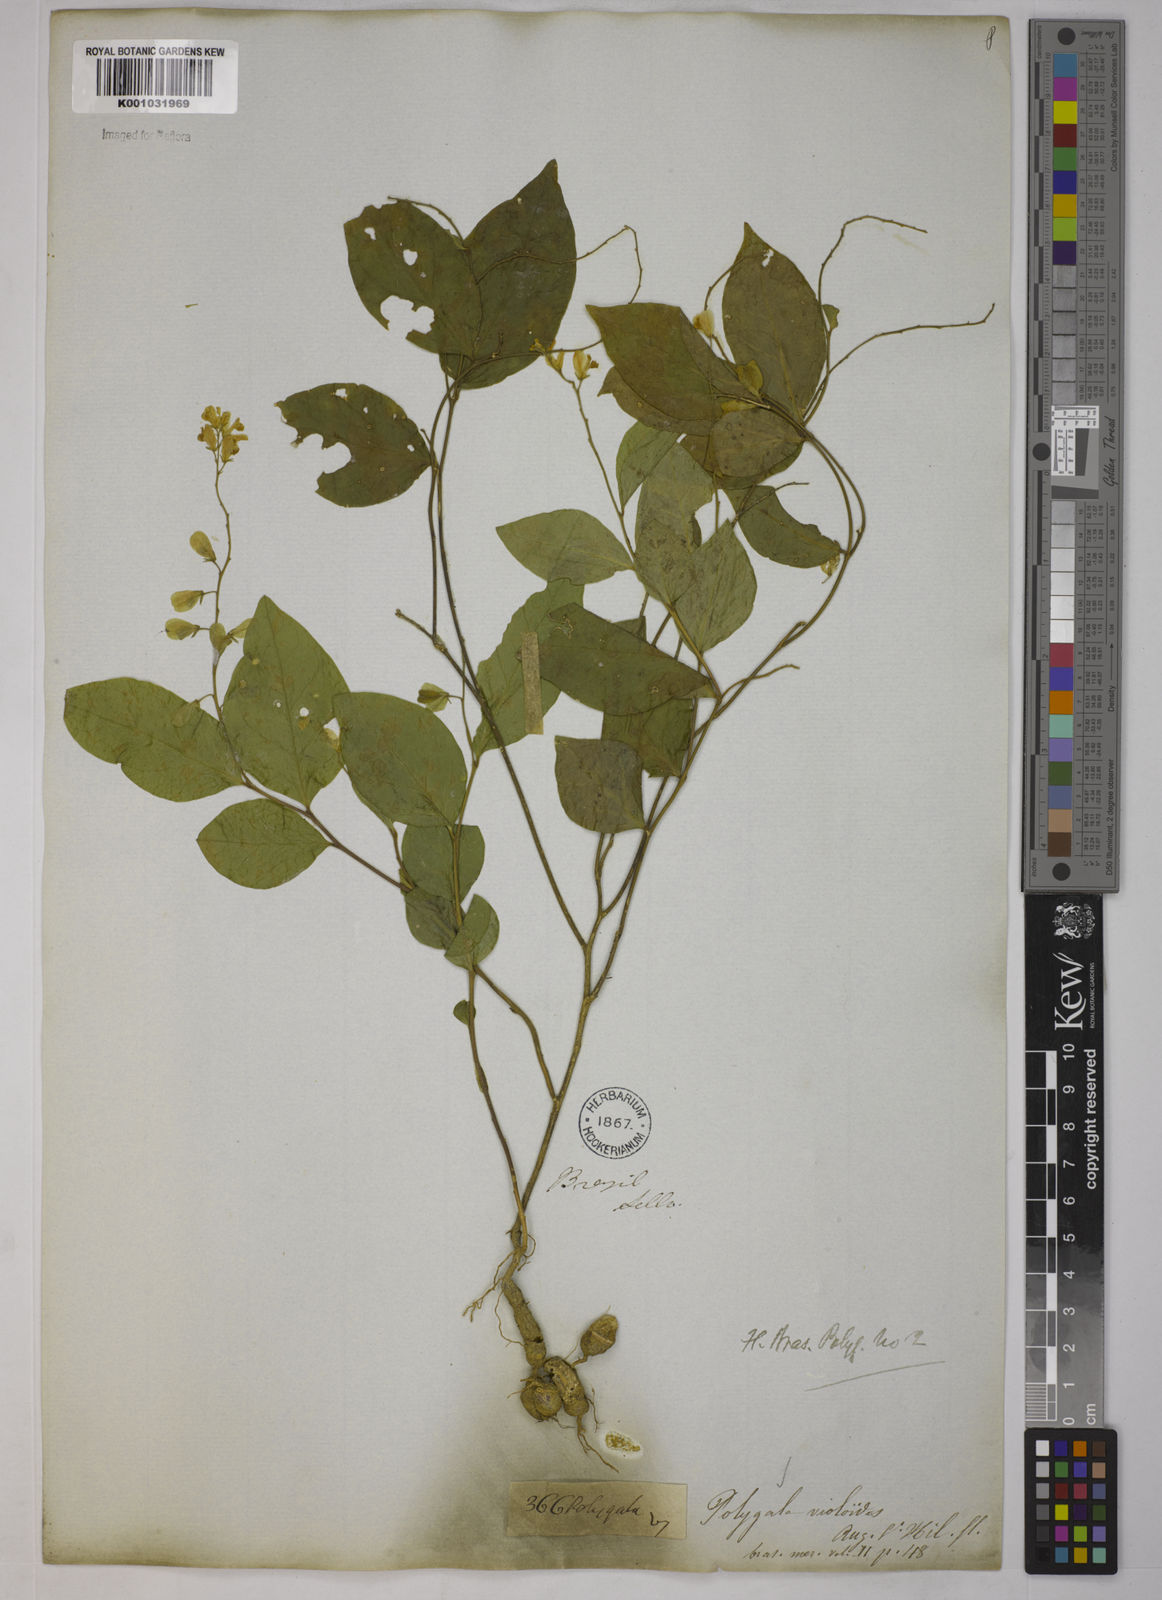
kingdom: Plantae
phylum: Tracheophyta
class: Magnoliopsida
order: Fabales
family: Polygalaceae
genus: Gymnospora
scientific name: Gymnospora violoides
